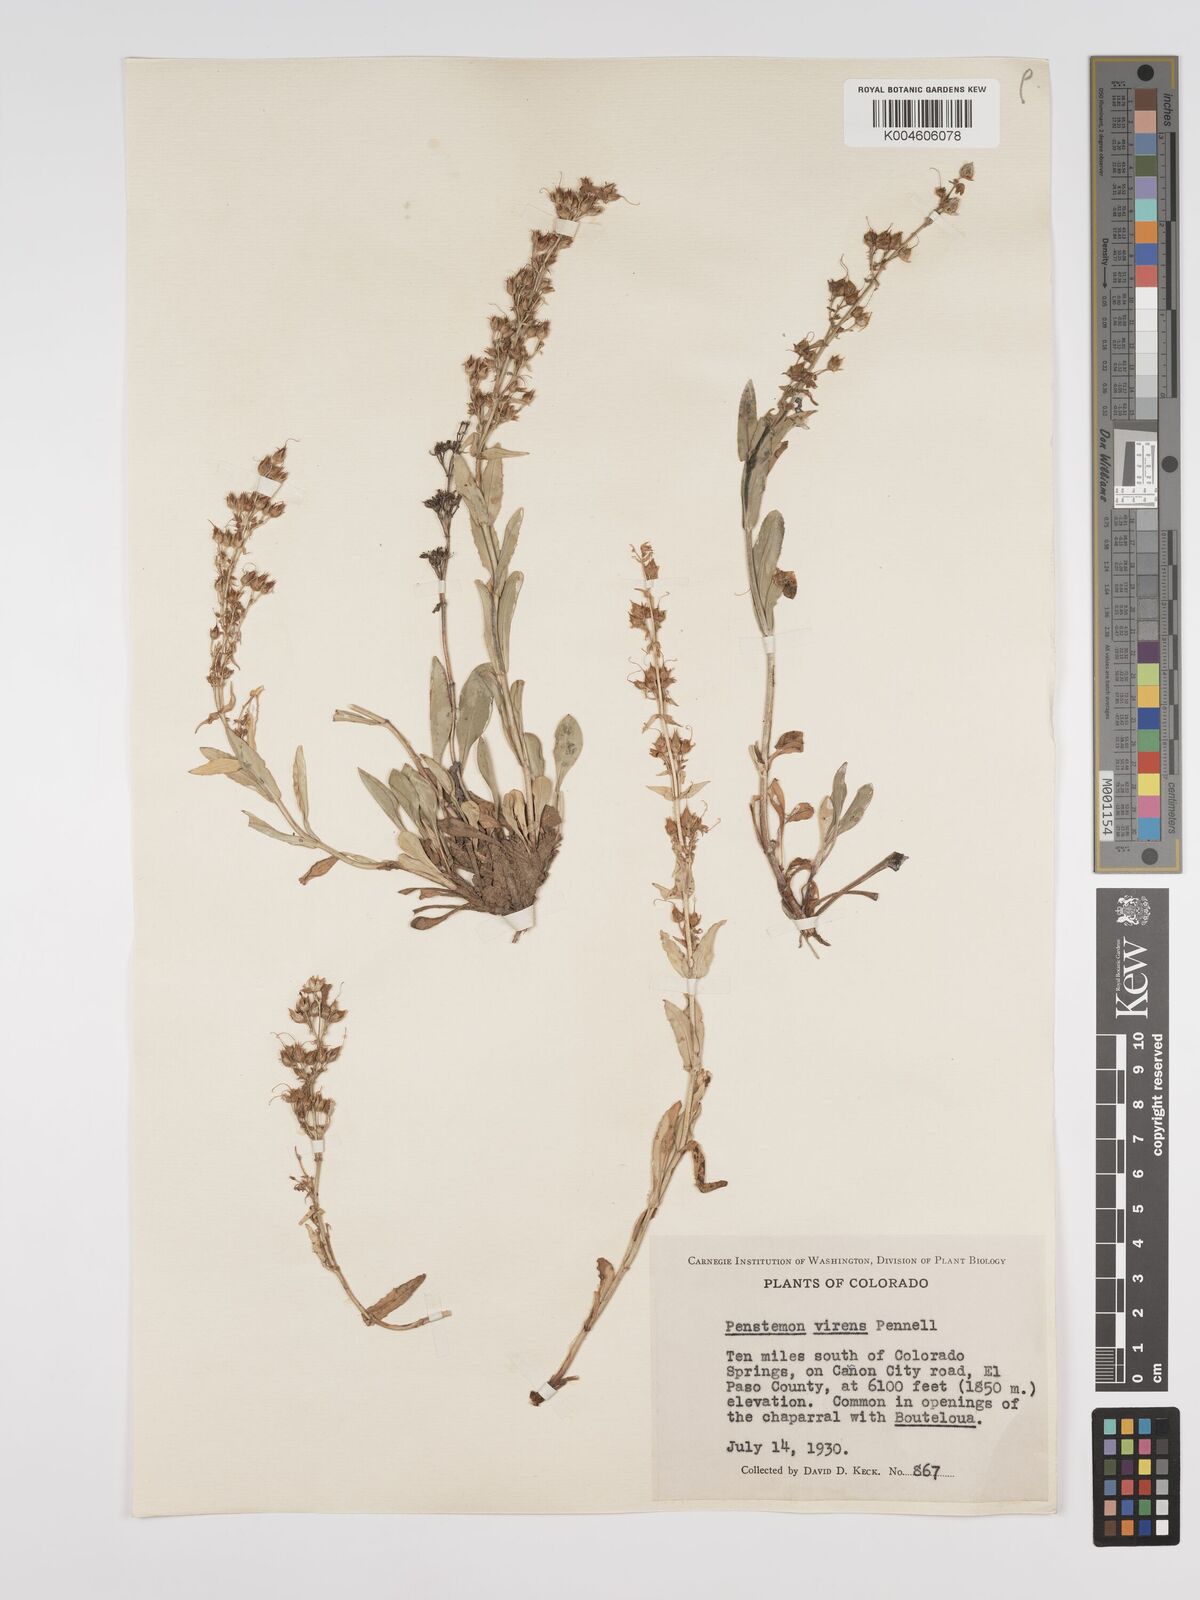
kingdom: Plantae
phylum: Tracheophyta
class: Magnoliopsida
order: Lamiales
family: Plantaginaceae
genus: Penstemon
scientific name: Penstemon virens
